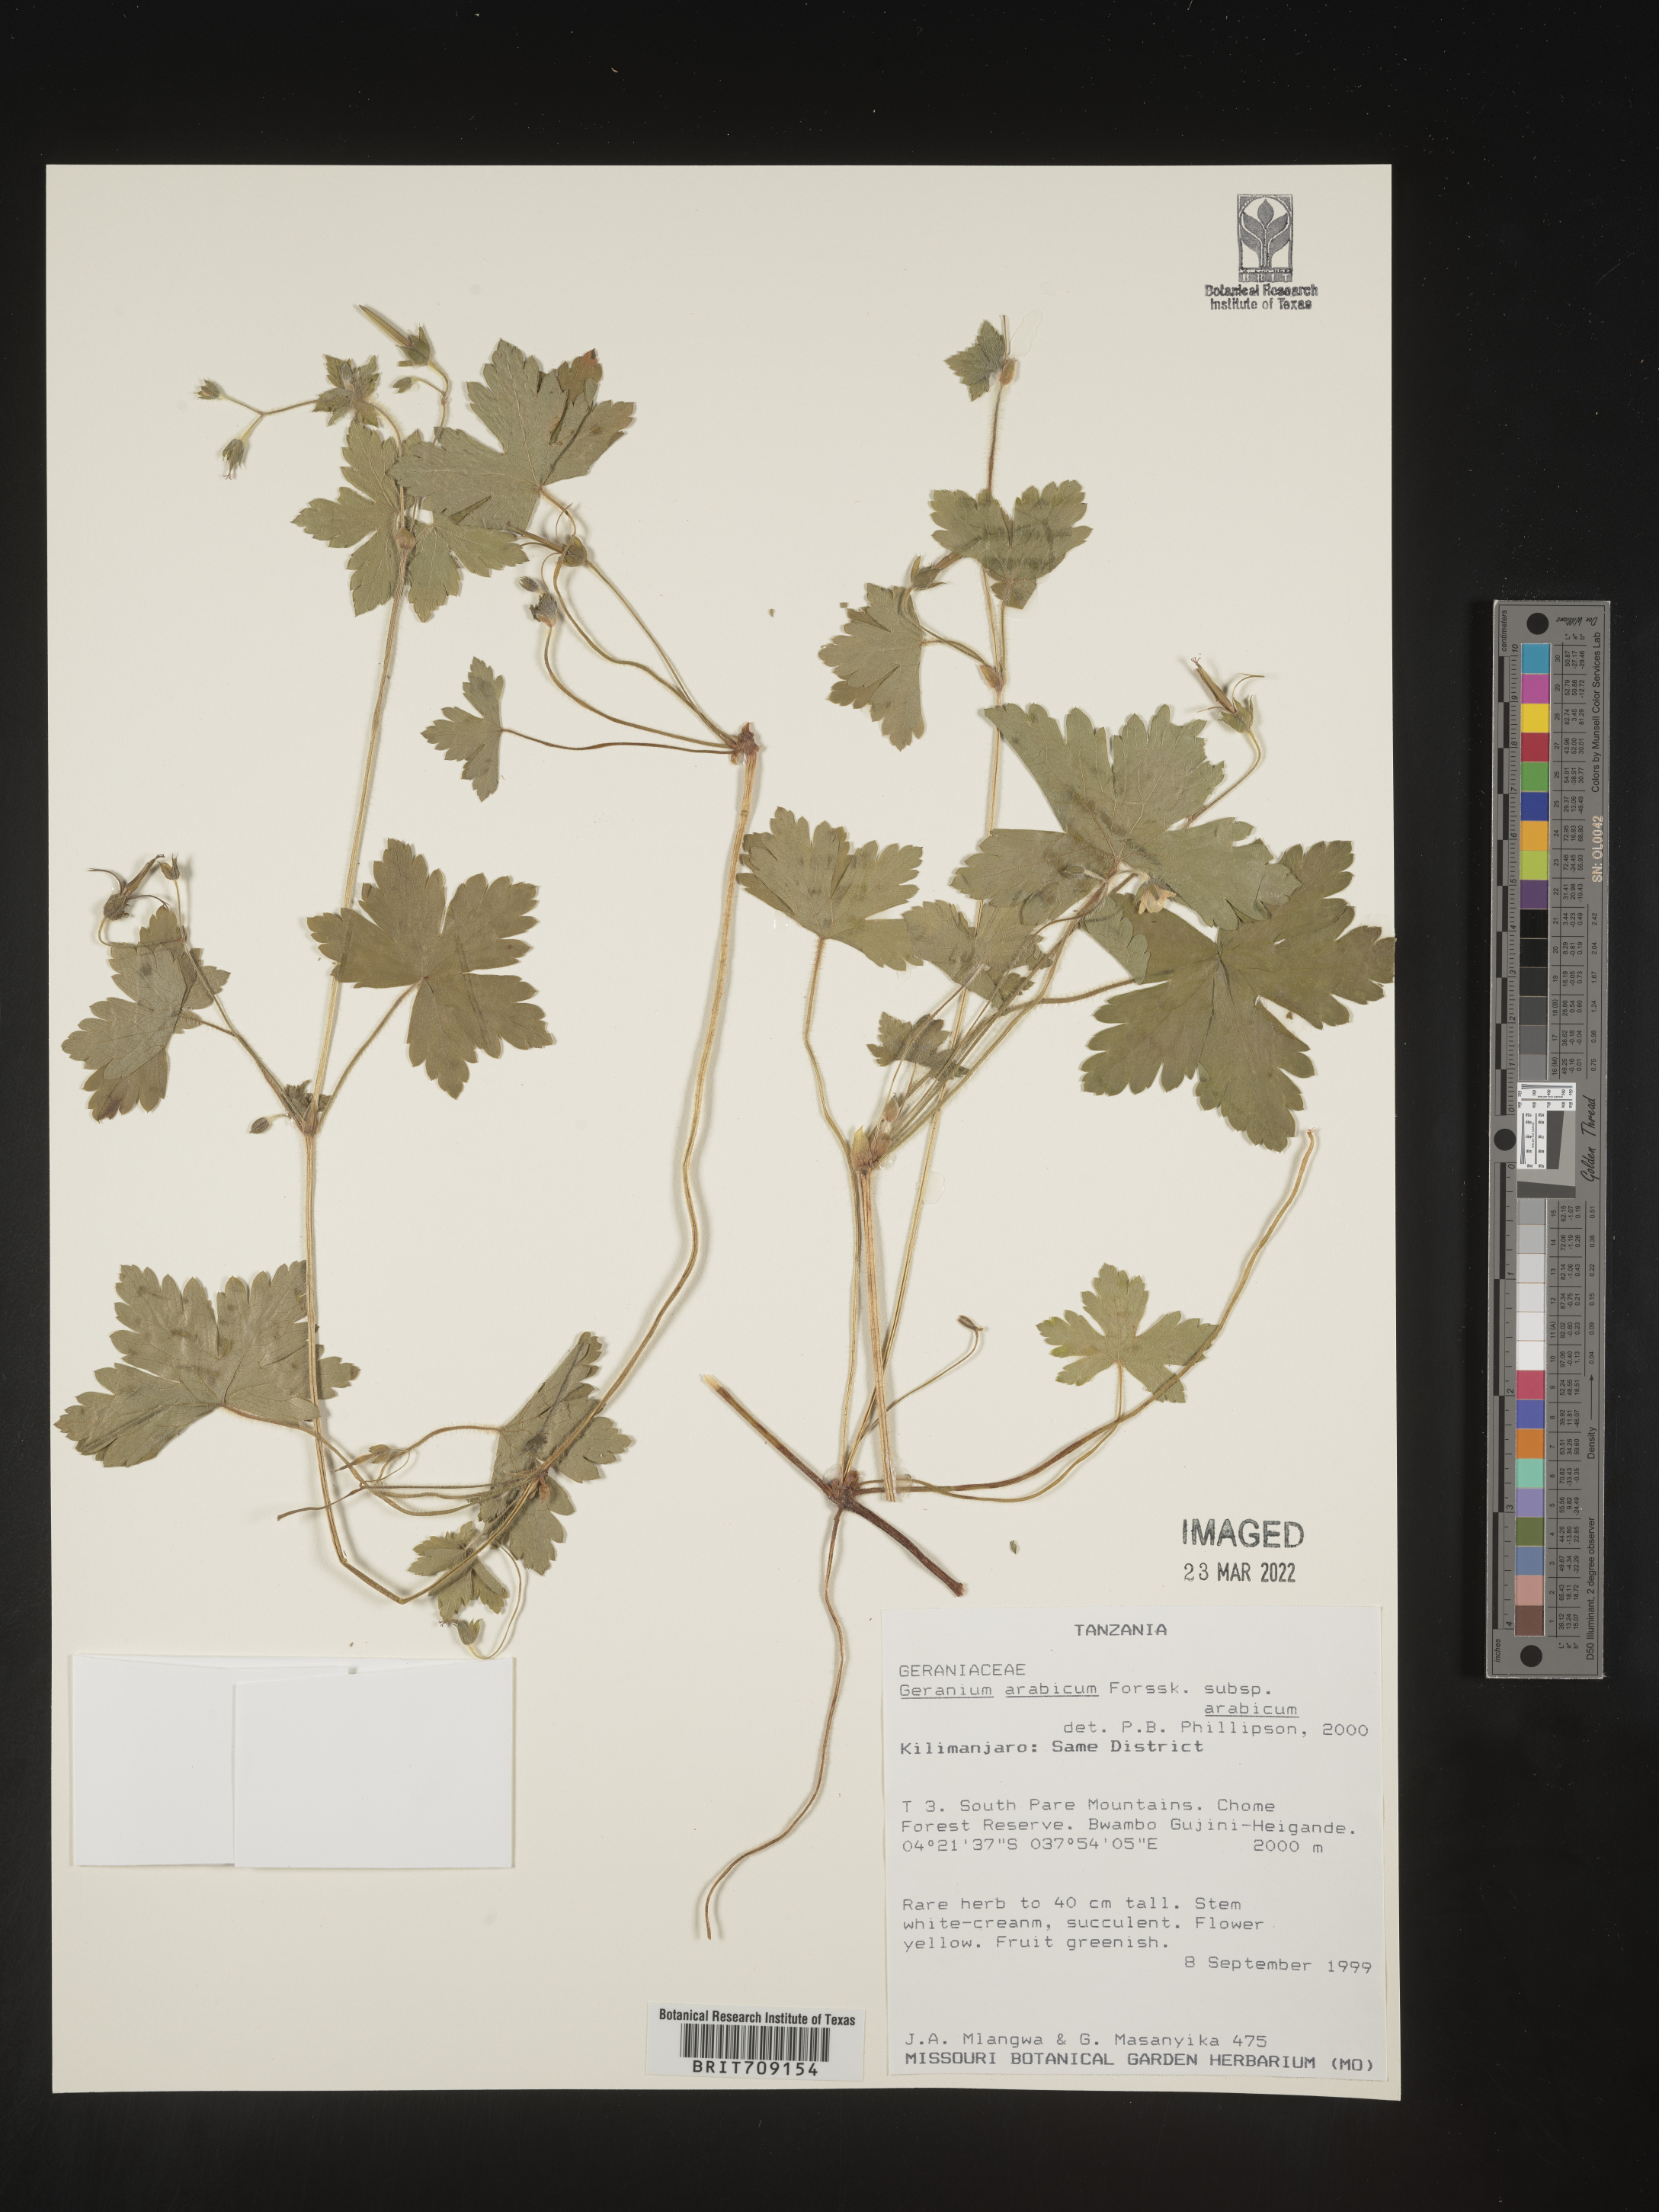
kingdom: Plantae
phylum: Tracheophyta
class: Magnoliopsida
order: Geraniales
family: Geraniaceae
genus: Geranium
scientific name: Geranium
